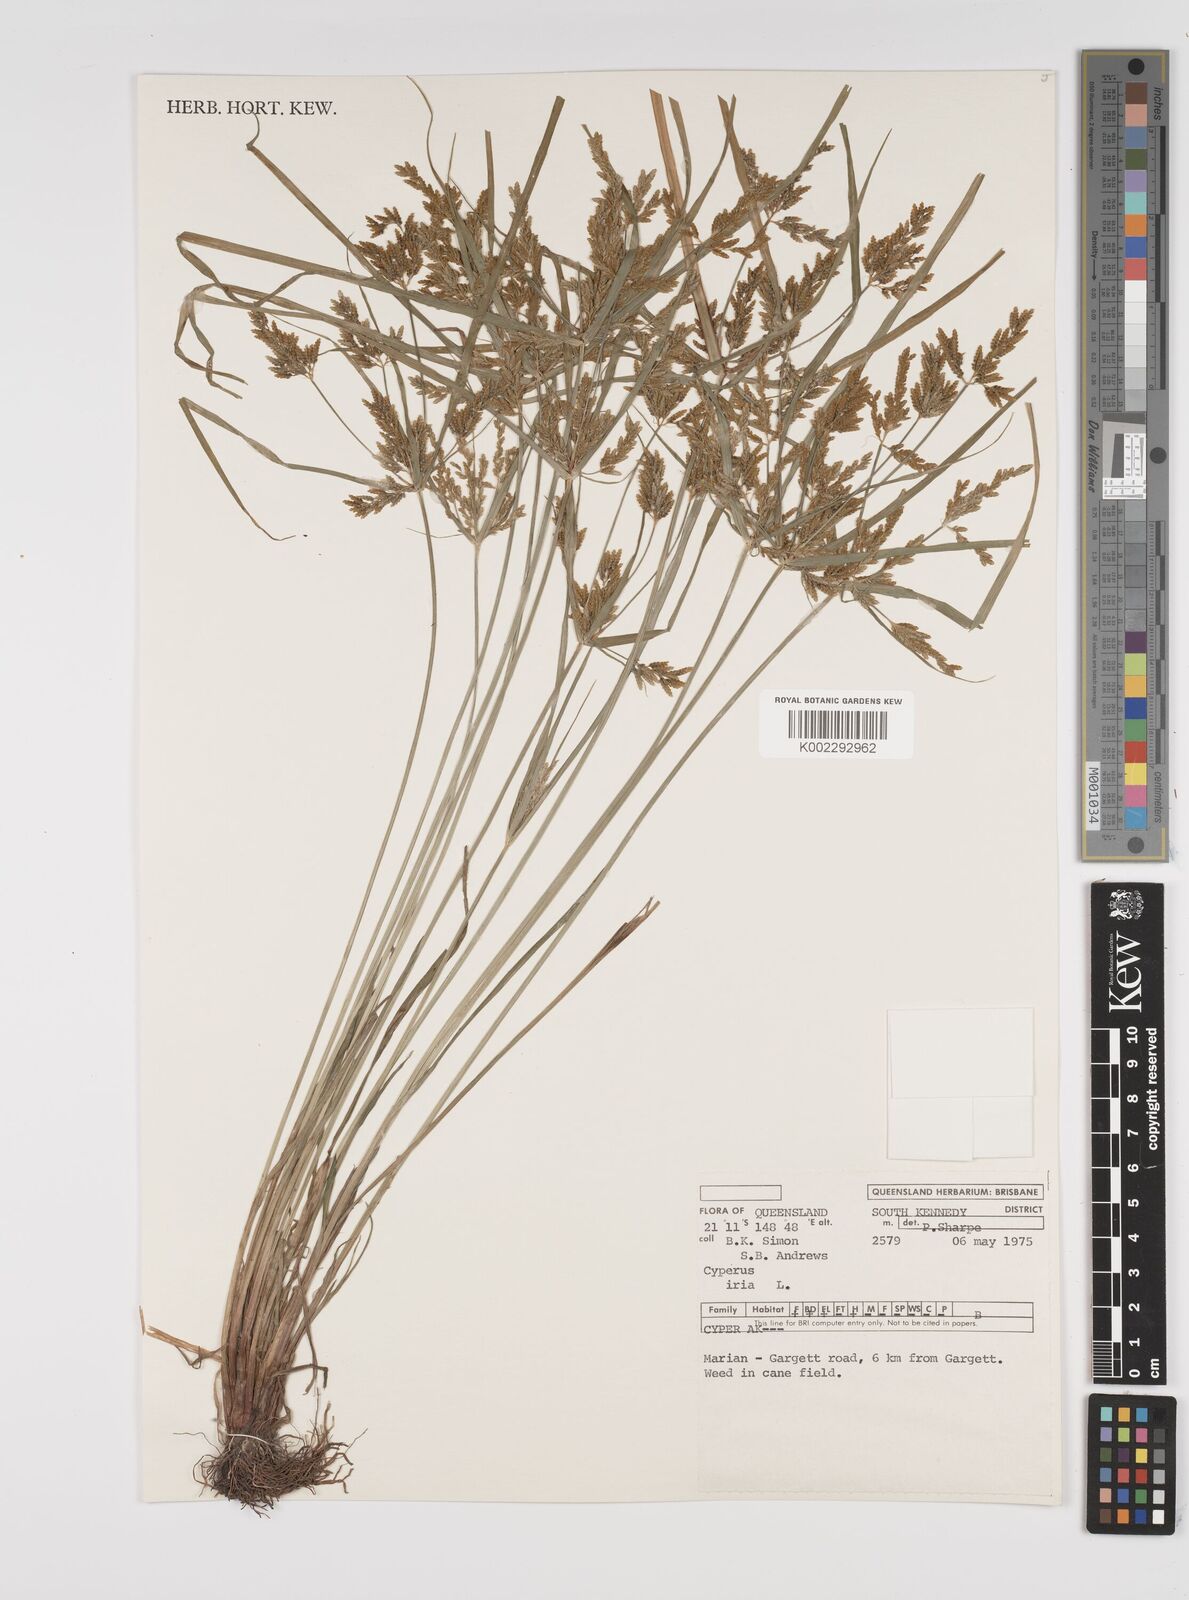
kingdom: Plantae
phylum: Tracheophyta
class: Liliopsida
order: Poales
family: Cyperaceae
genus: Cyperus
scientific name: Cyperus iria
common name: Ricefield flatsedge
